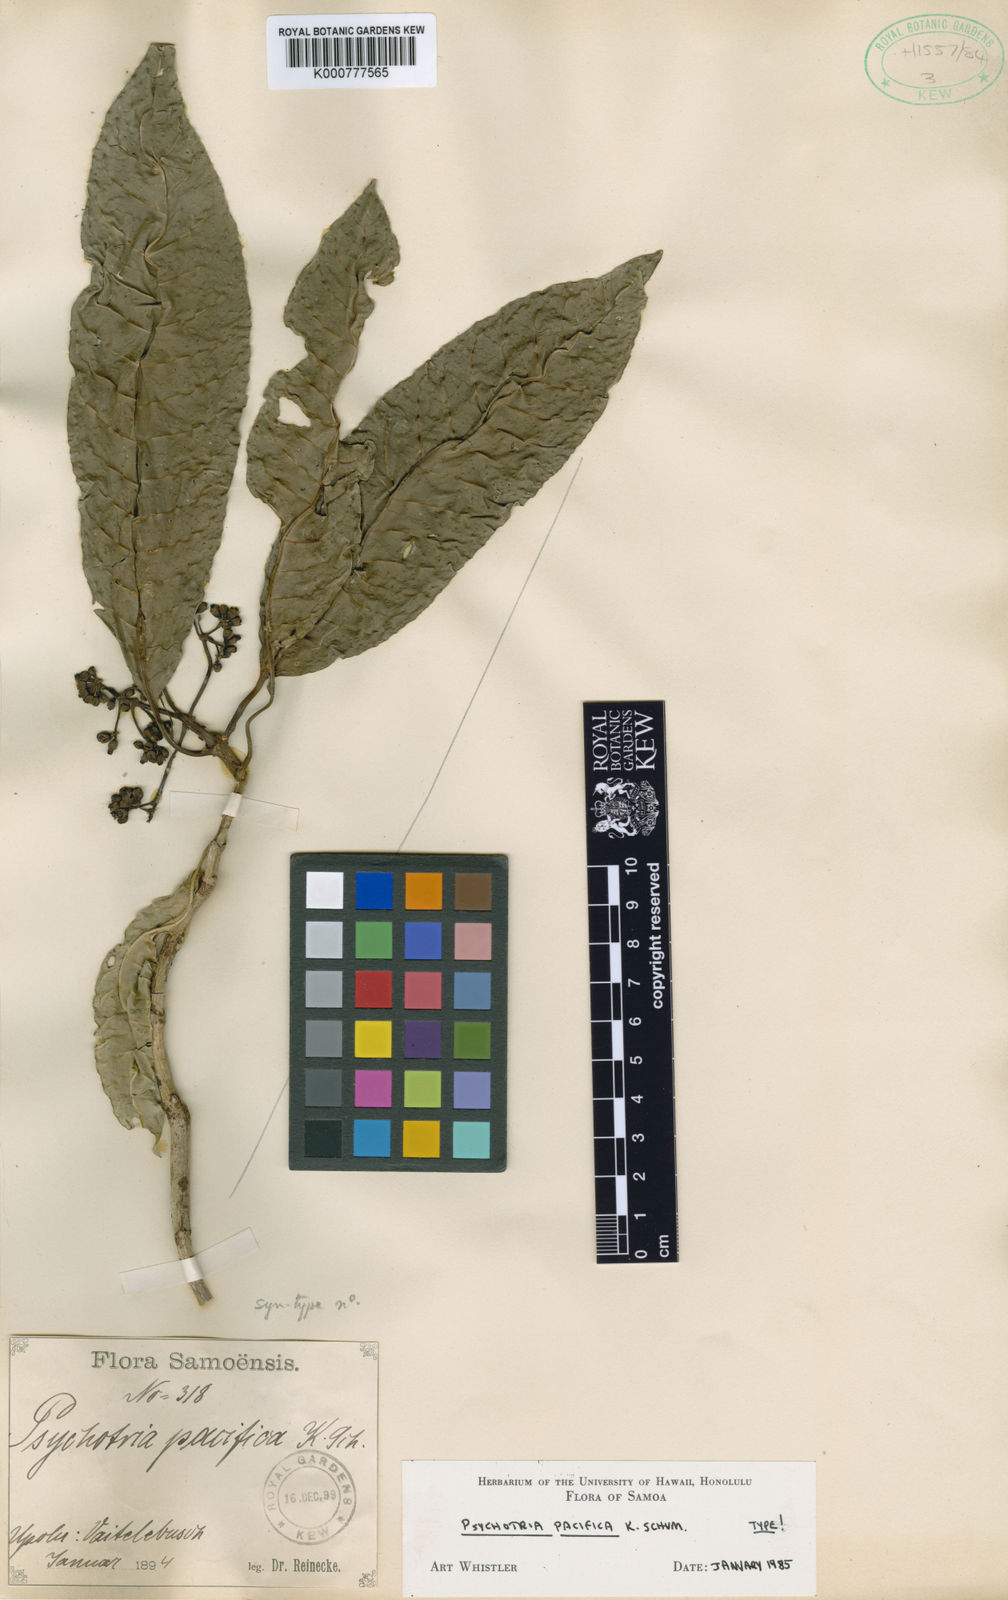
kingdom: Plantae
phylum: Tracheophyta
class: Magnoliopsida
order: Gentianales
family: Rubiaceae
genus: Psychotria
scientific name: Psychotria pacifica
